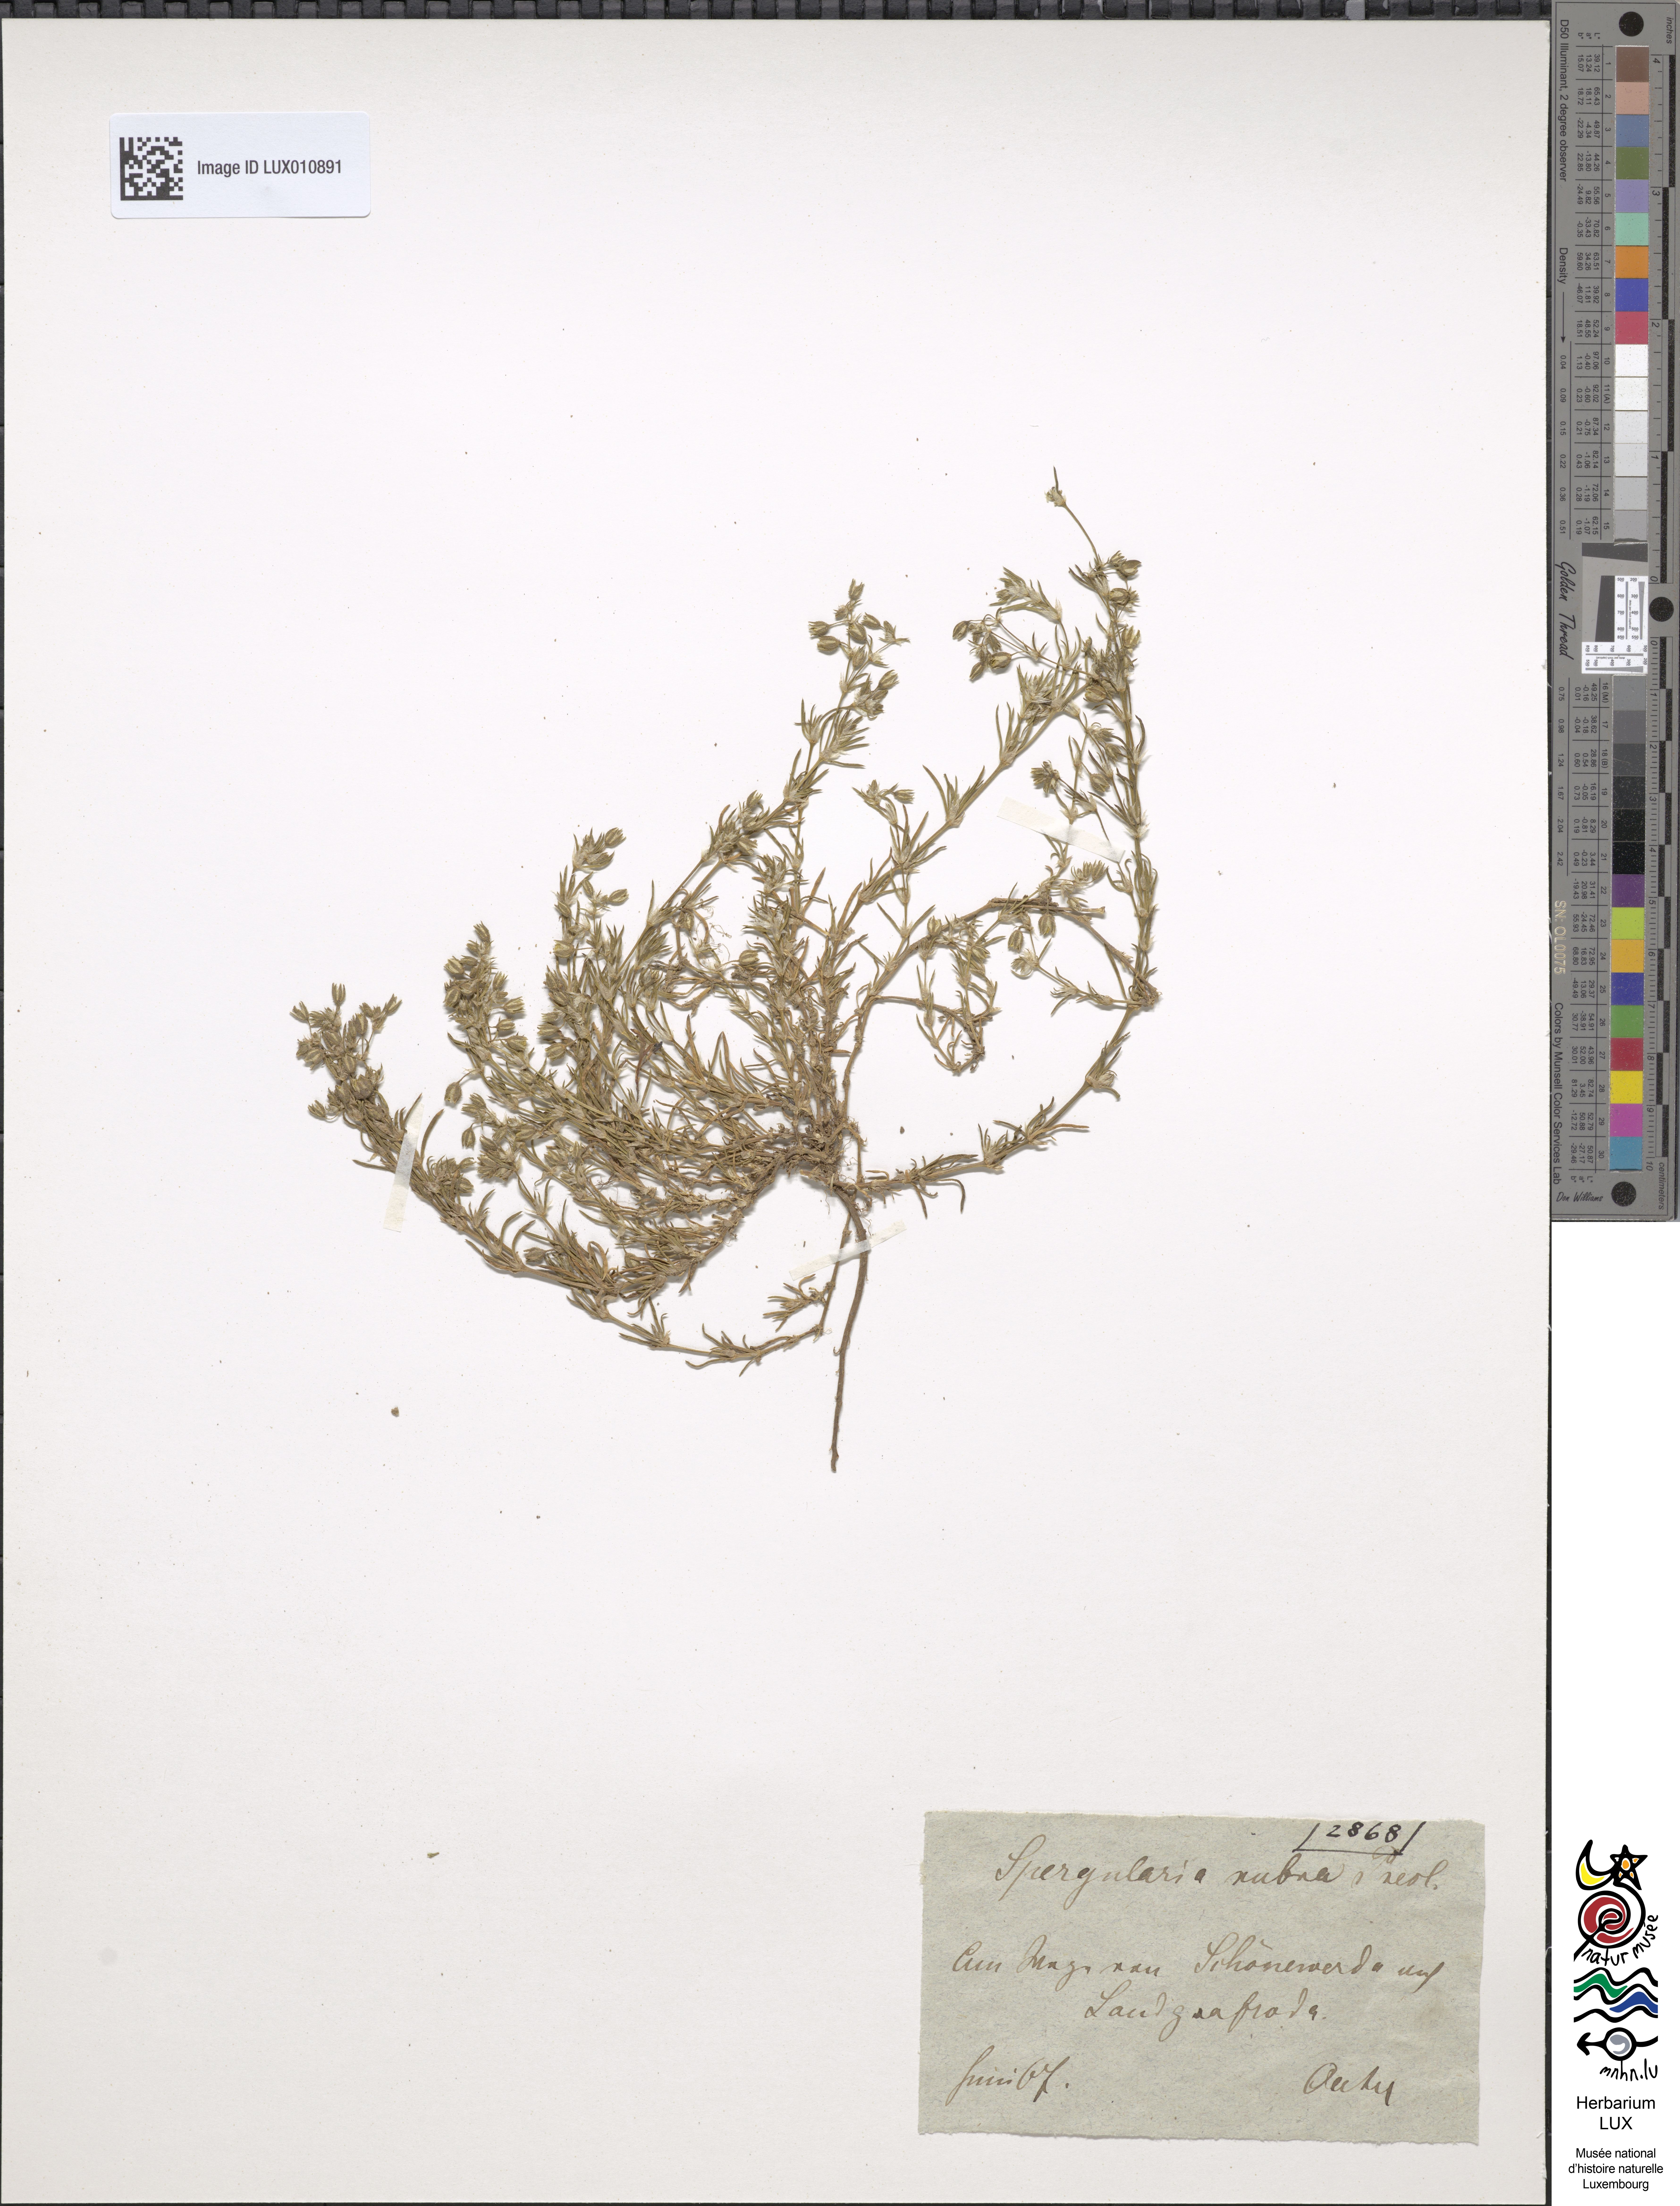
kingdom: Plantae
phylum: Tracheophyta
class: Magnoliopsida
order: Caryophyllales
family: Caryophyllaceae
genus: Spergularia
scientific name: Spergularia rubra
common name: Red sand-spurrey
